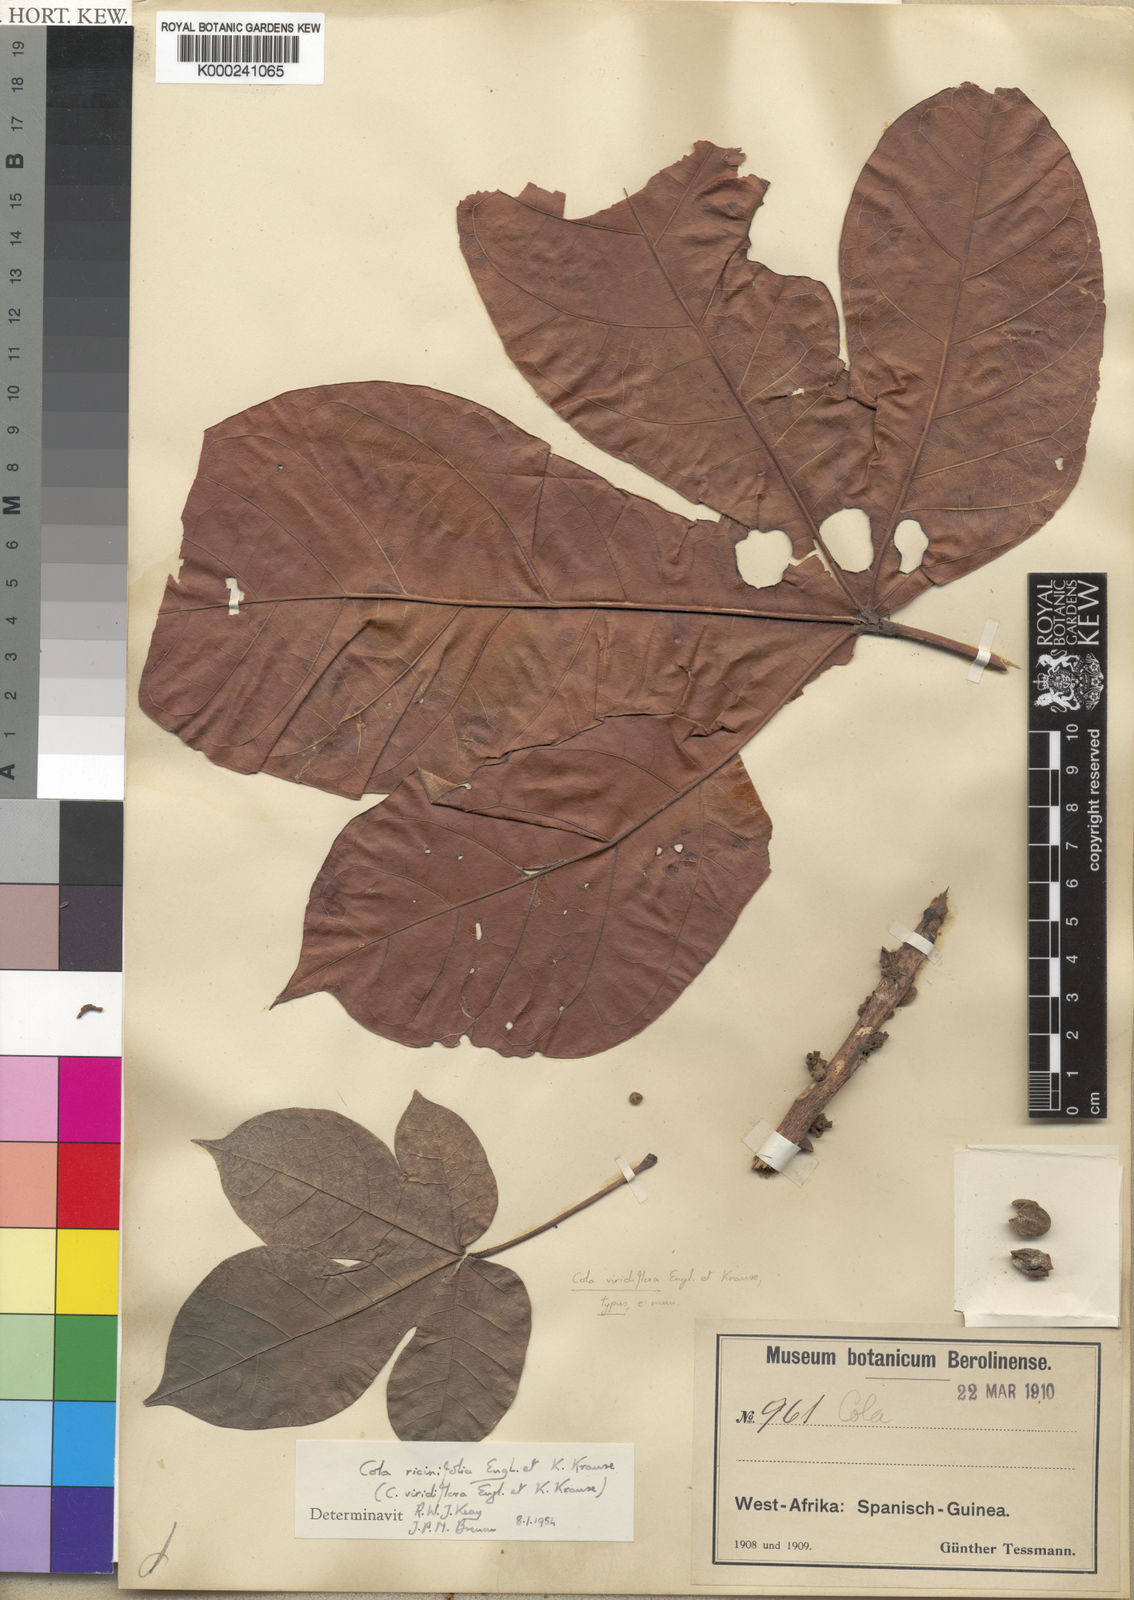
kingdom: Plantae
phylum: Tracheophyta
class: Magnoliopsida
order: Malvales
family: Malvaceae
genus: Cola
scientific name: Cola ricinifolia
